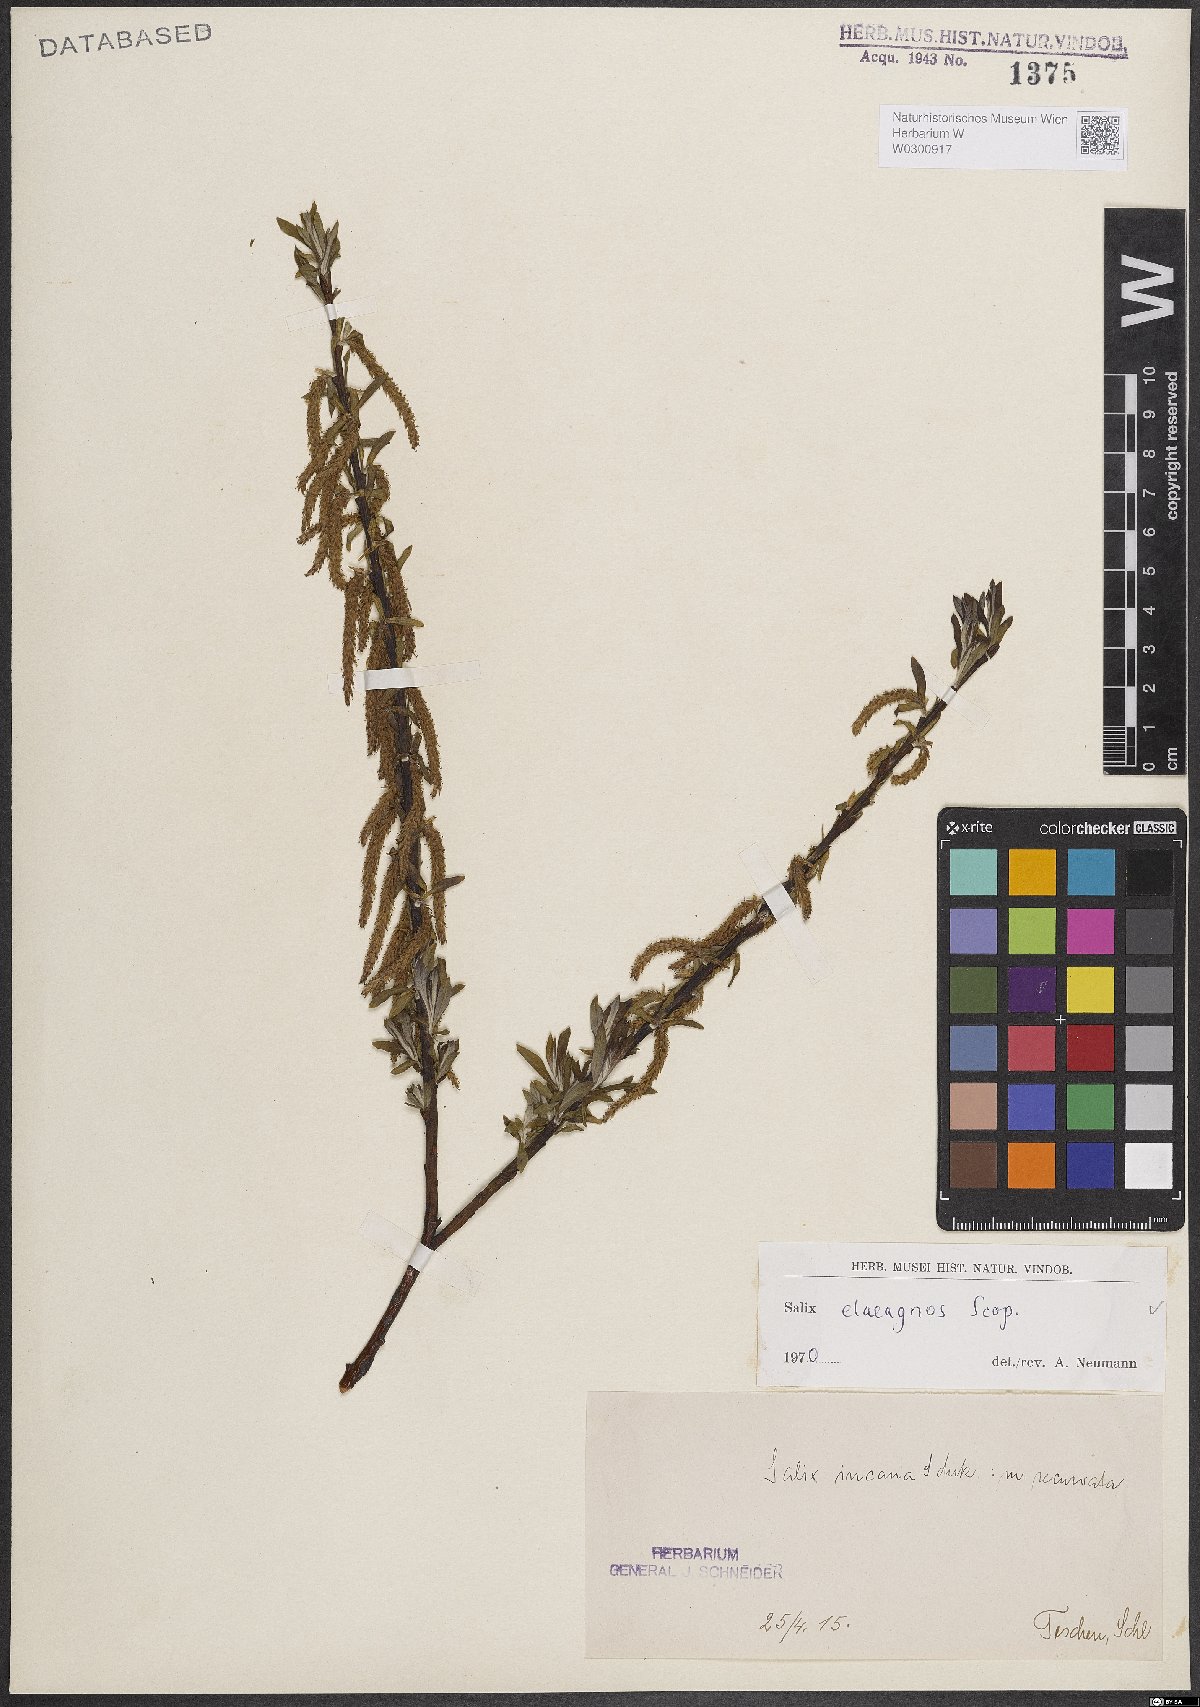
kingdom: Plantae
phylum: Tracheophyta
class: Magnoliopsida
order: Malpighiales
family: Salicaceae
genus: Salix
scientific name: Salix eleagnos
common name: Elaeagnus willow
